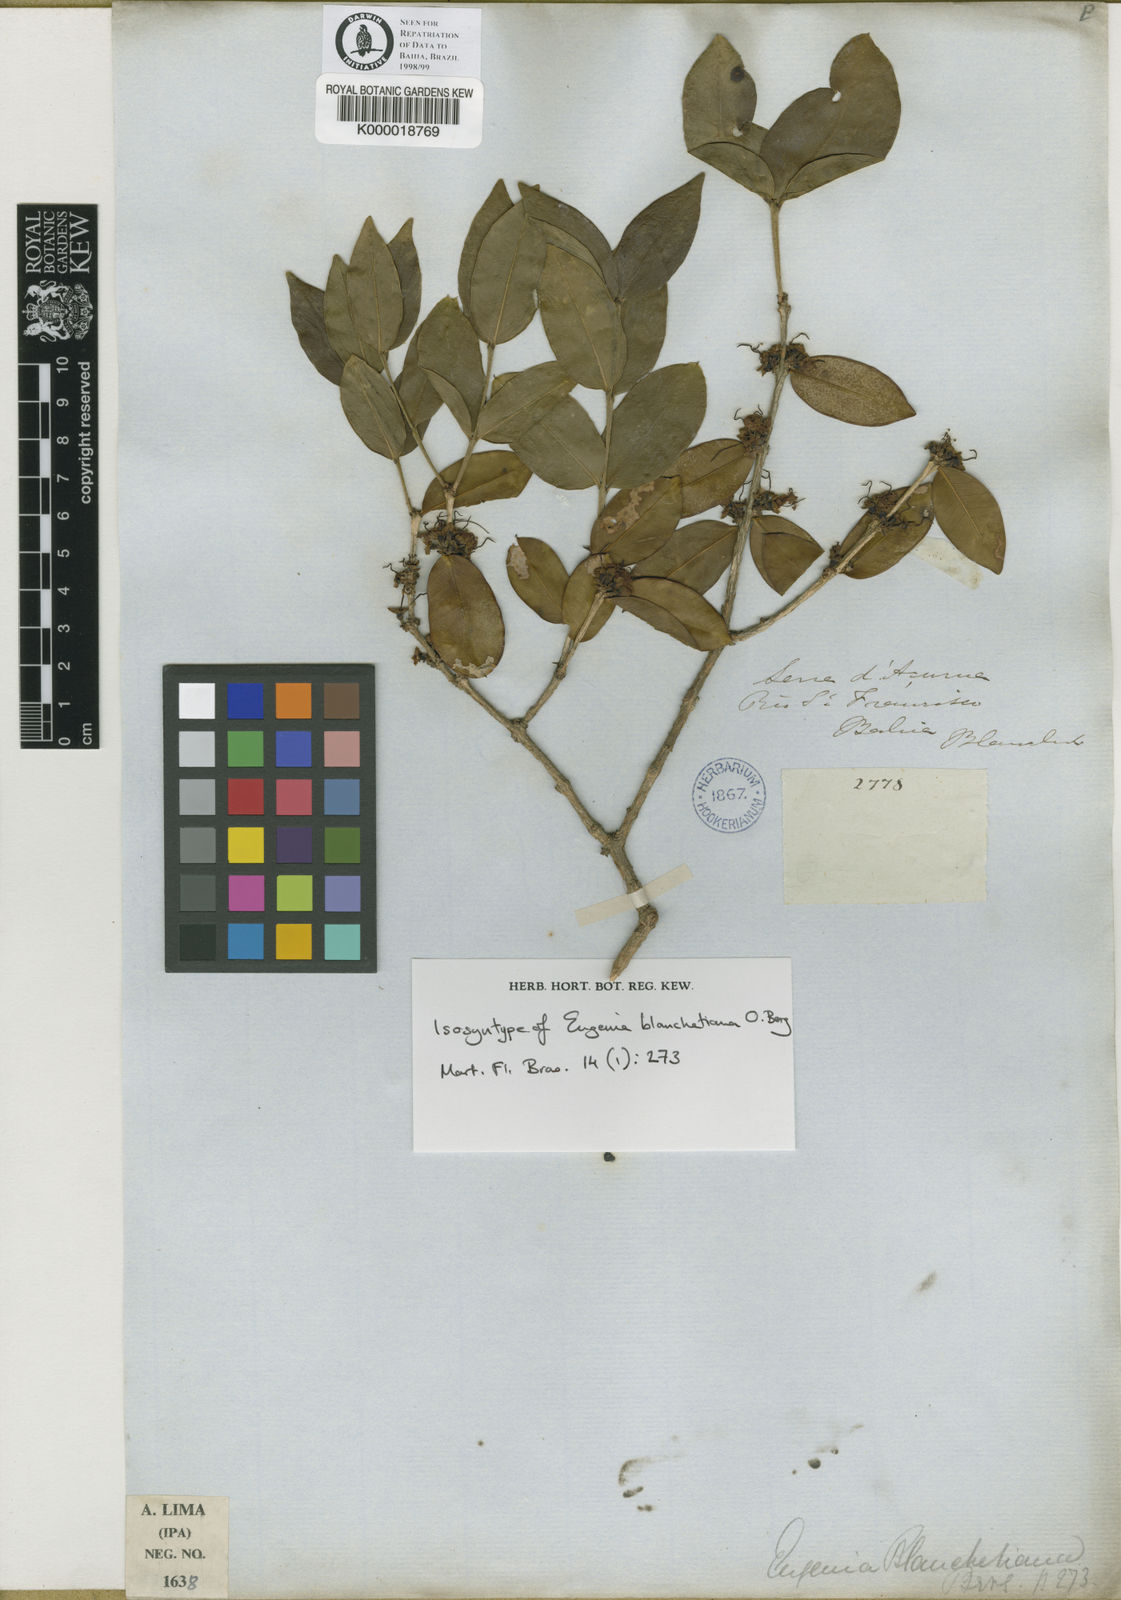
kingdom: Plantae
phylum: Tracheophyta
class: Magnoliopsida
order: Myrtales
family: Myrtaceae
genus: Eugenia
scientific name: Eugenia blanchetiana
